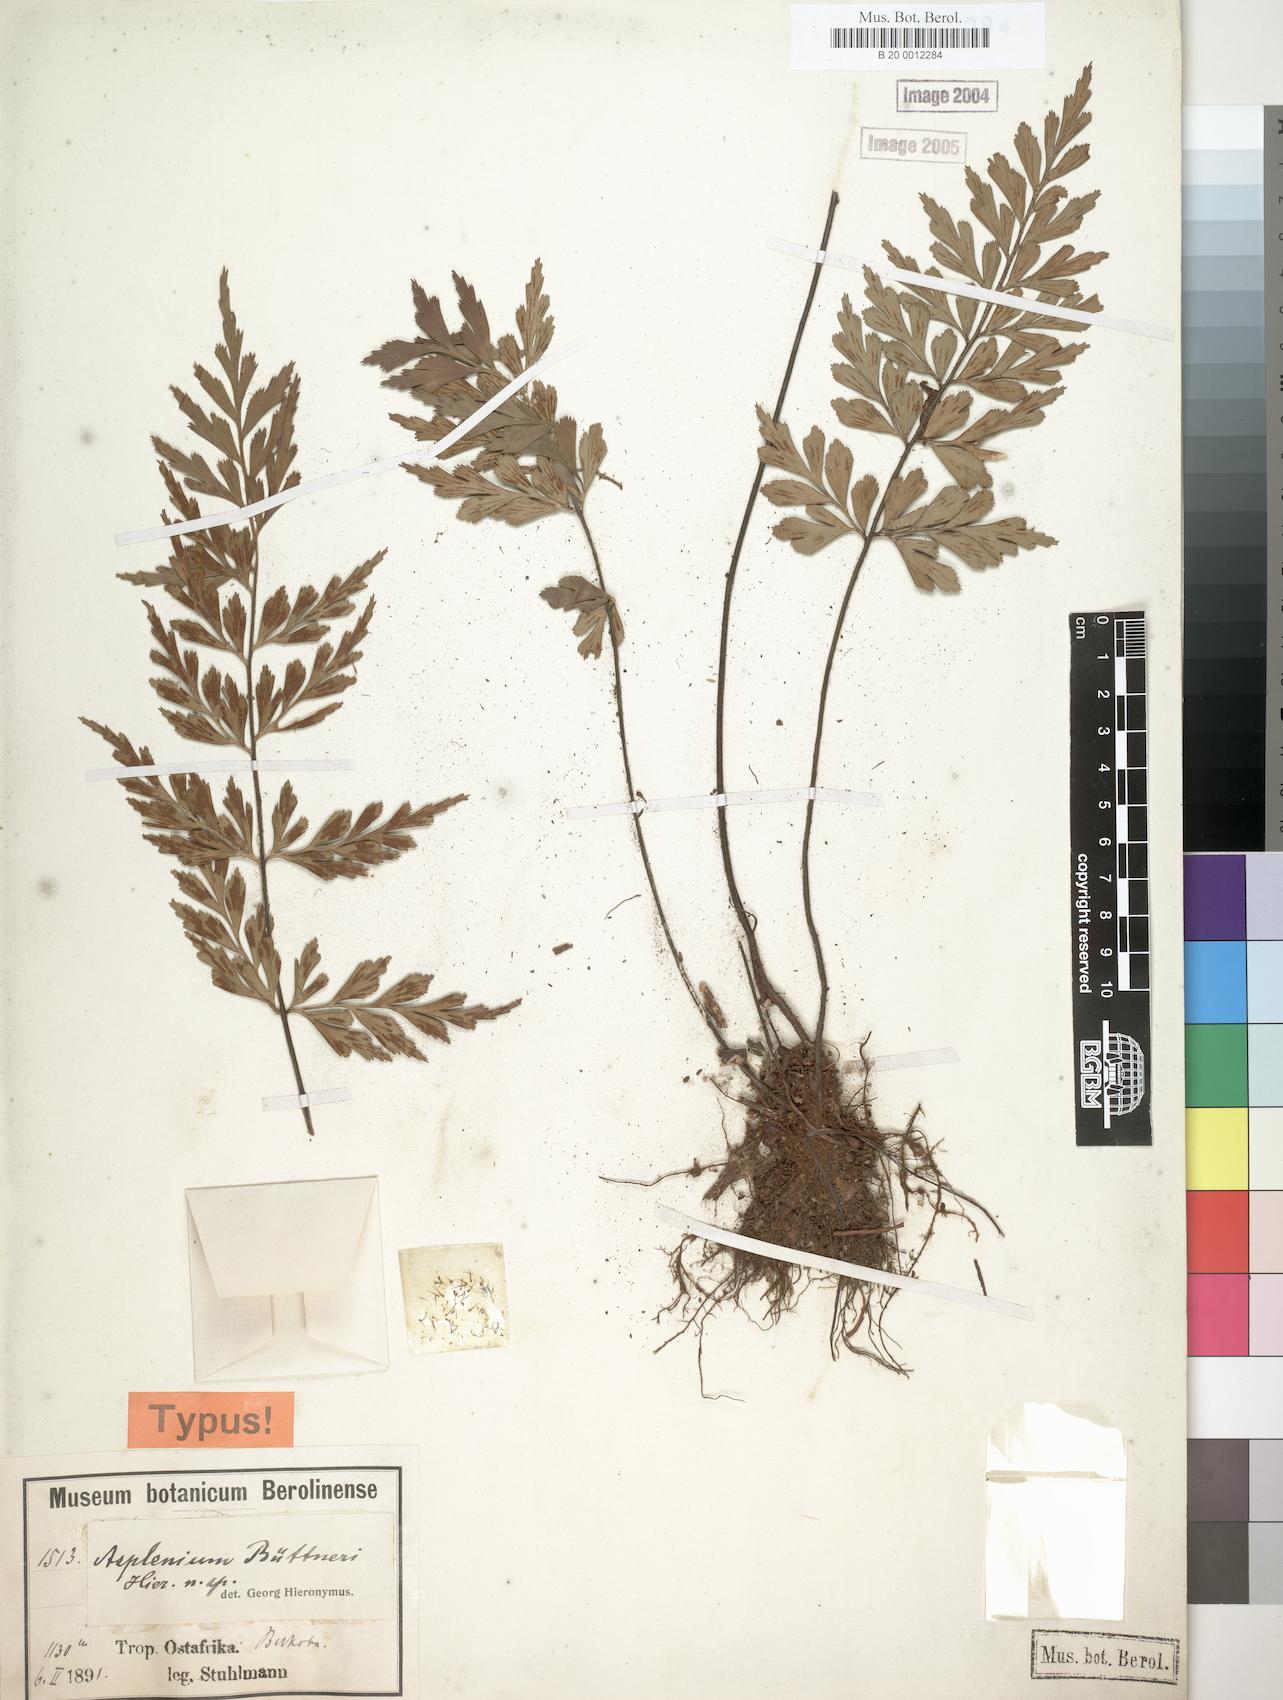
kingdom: Plantae
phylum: Tracheophyta
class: Polypodiopsida
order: Polypodiales
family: Aspleniaceae
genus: Asplenium
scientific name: Asplenium buettneri
